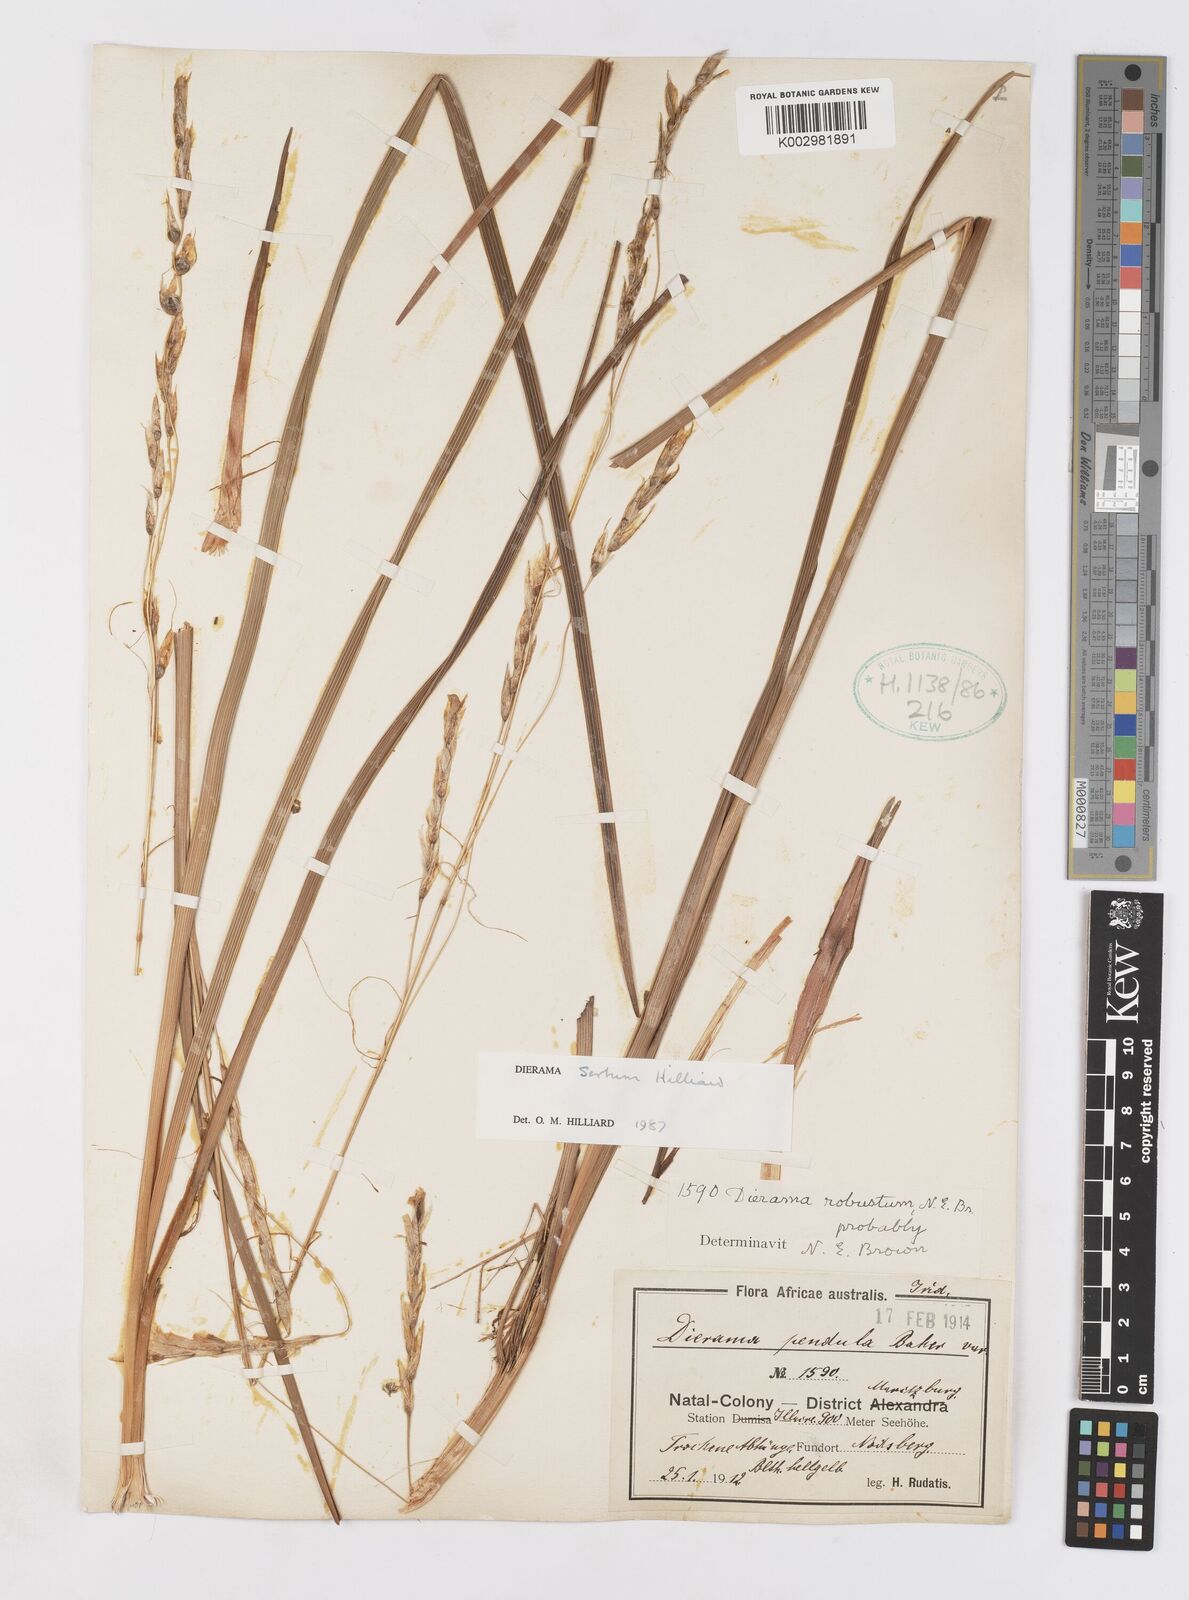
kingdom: Plantae
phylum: Tracheophyta
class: Liliopsida
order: Asparagales
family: Iridaceae
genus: Dierama
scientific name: Dierama sertum
